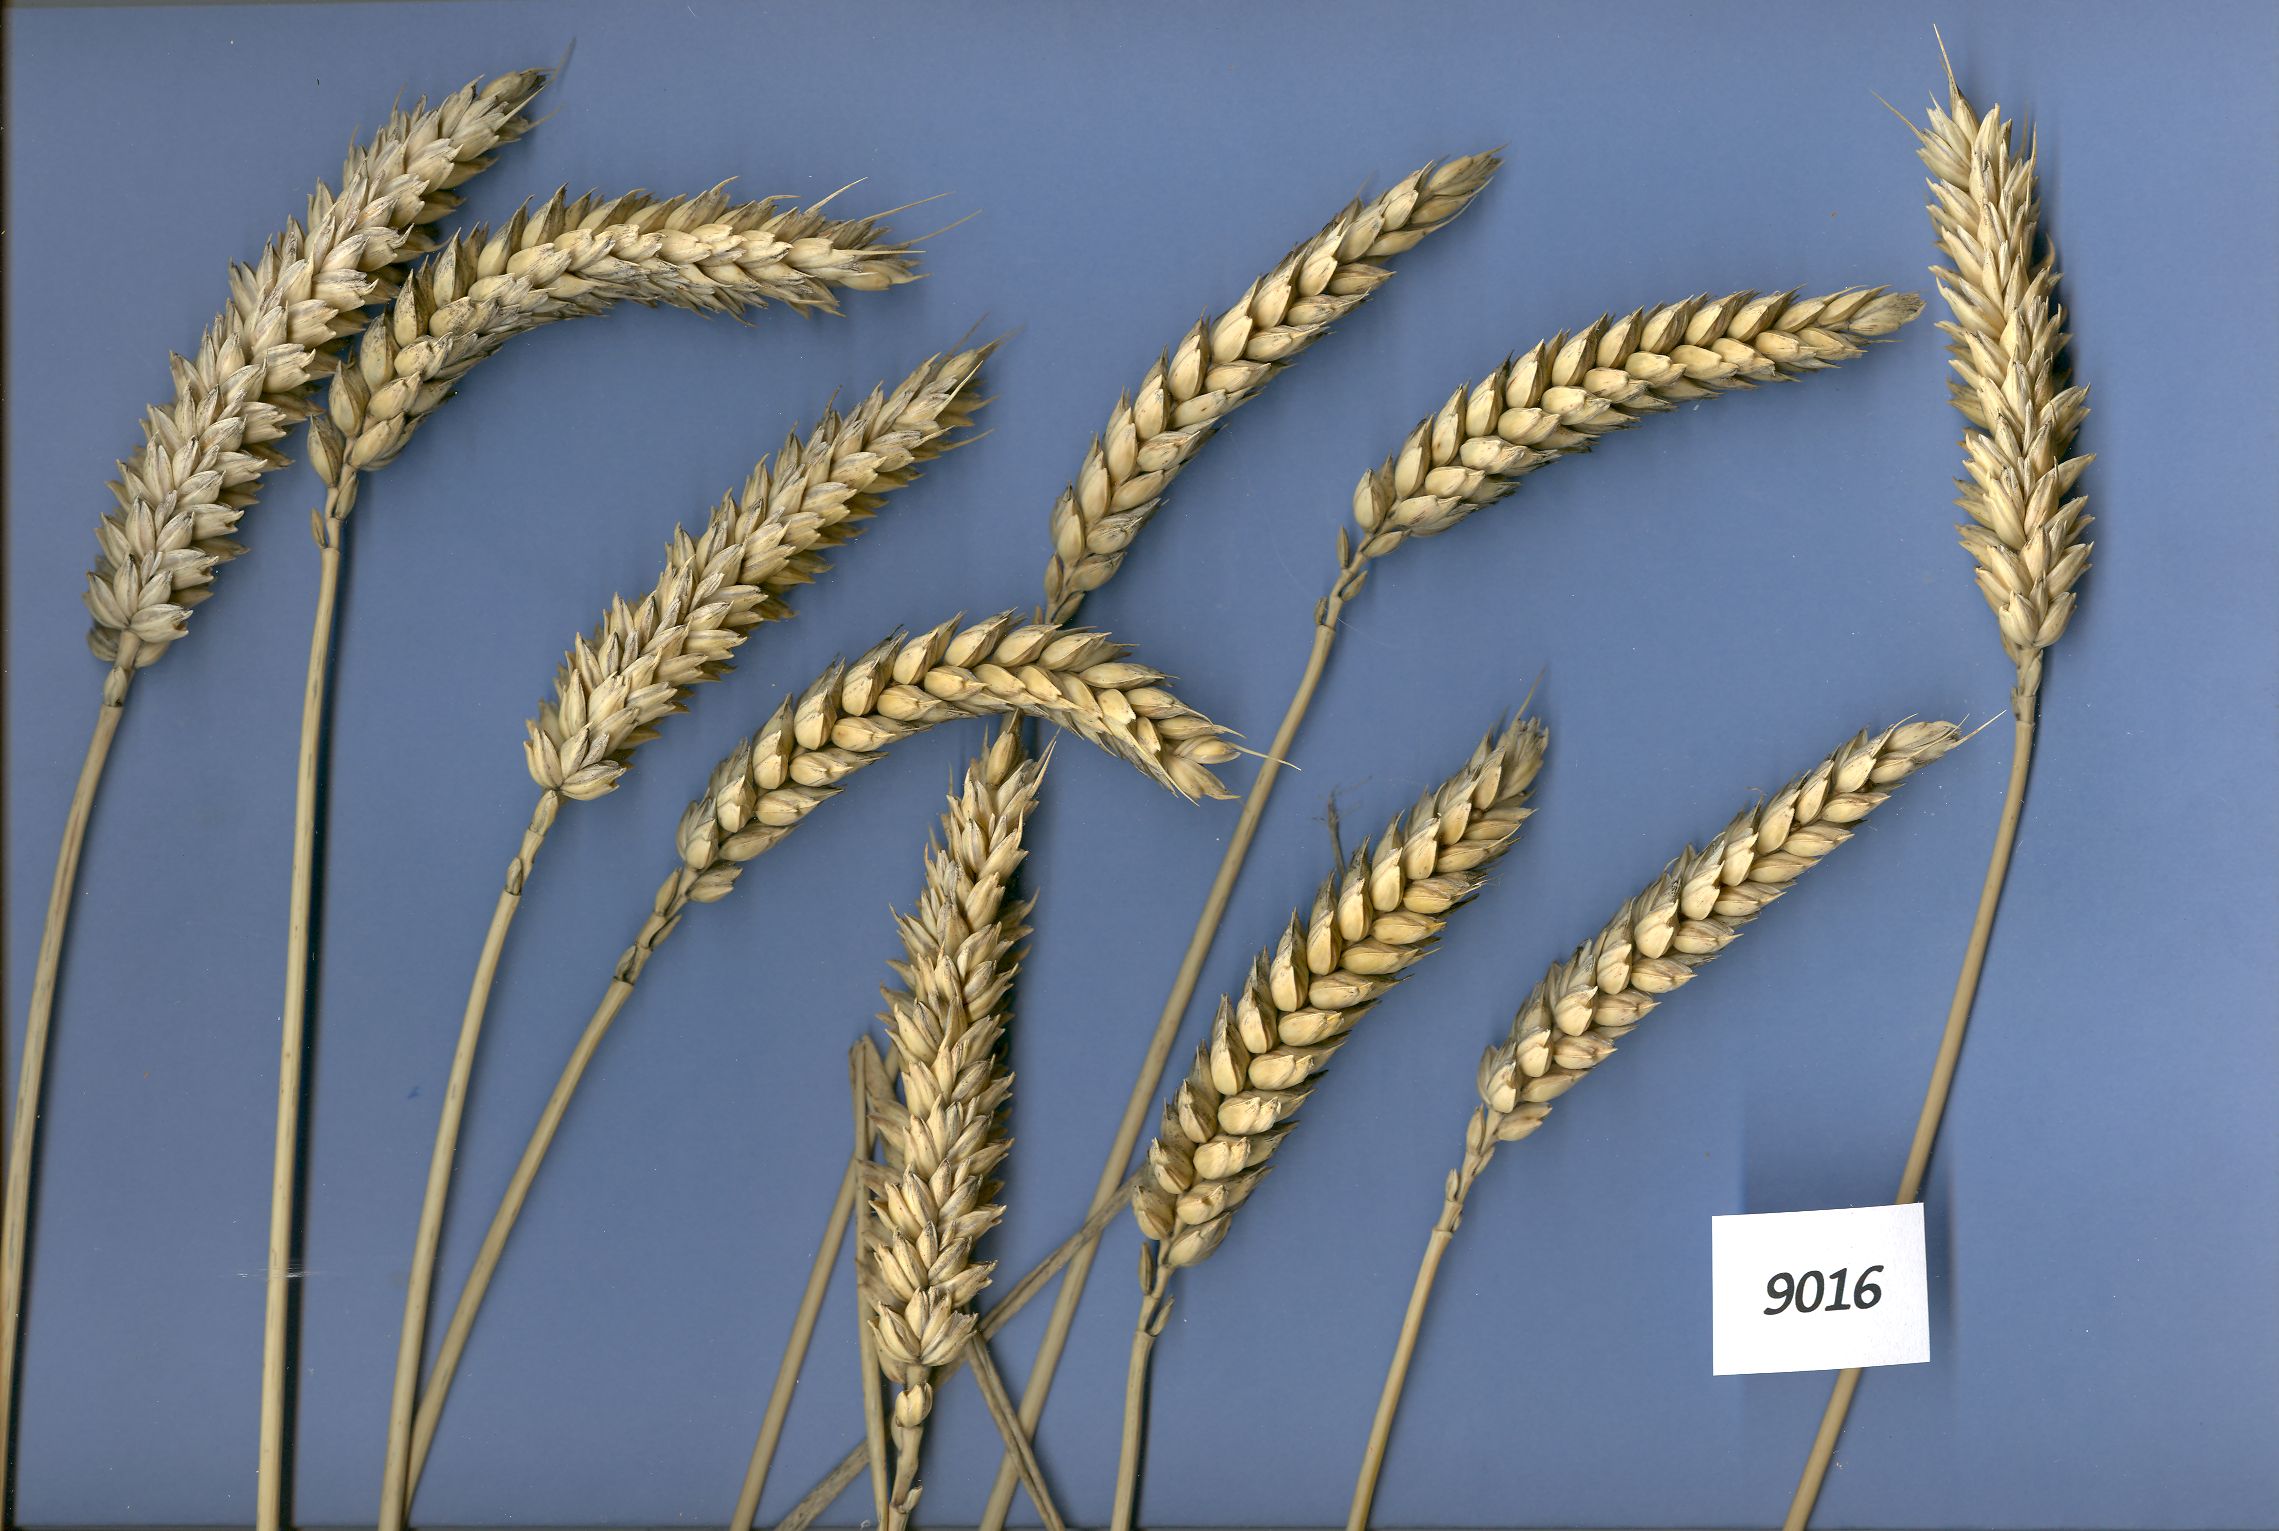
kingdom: Plantae
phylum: Tracheophyta
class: Liliopsida
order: Poales
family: Poaceae
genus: Triticum
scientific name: Triticum aestivum
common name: Common wheat
